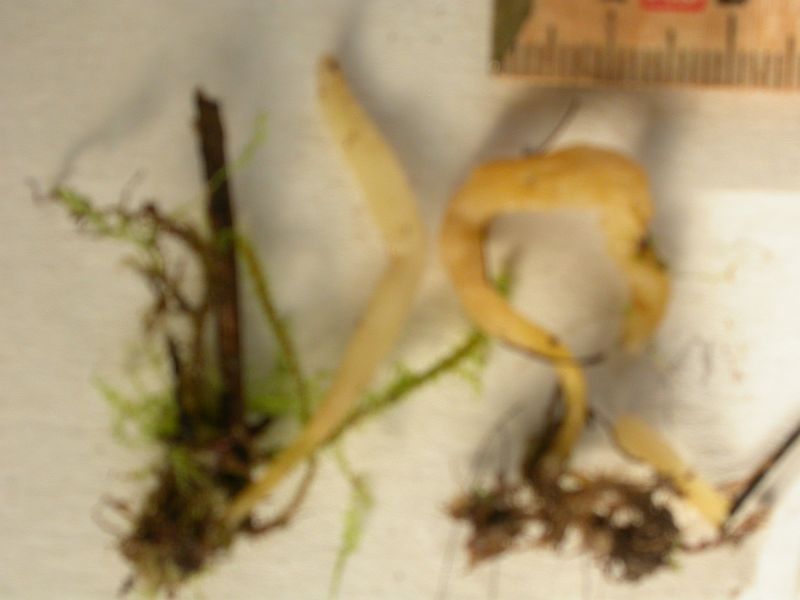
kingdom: Fungi
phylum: Basidiomycota
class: Agaricomycetes
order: Agaricales
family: Clavariaceae
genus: Clavaria
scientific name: Clavaria flavipes
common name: strågul køllesvamp
